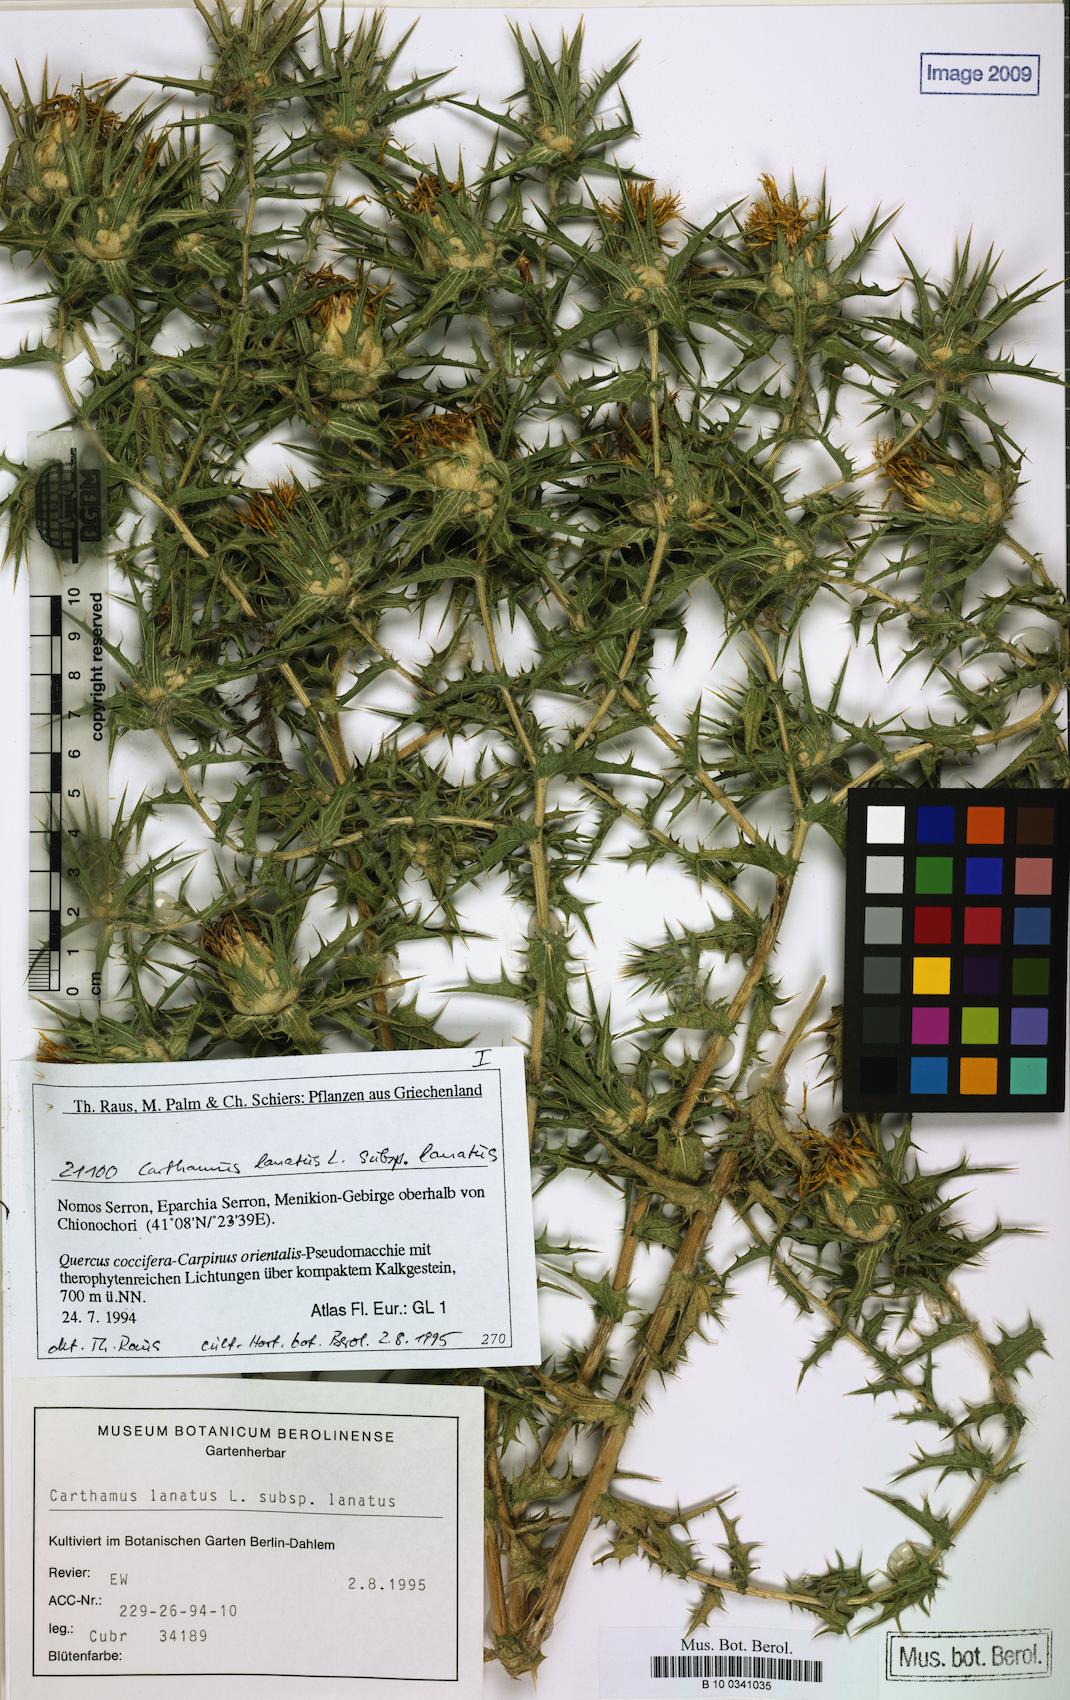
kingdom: Plantae
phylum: Tracheophyta
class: Magnoliopsida
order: Asterales
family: Asteraceae
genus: Carthamus
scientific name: Carthamus lanatus
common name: Downy safflower
